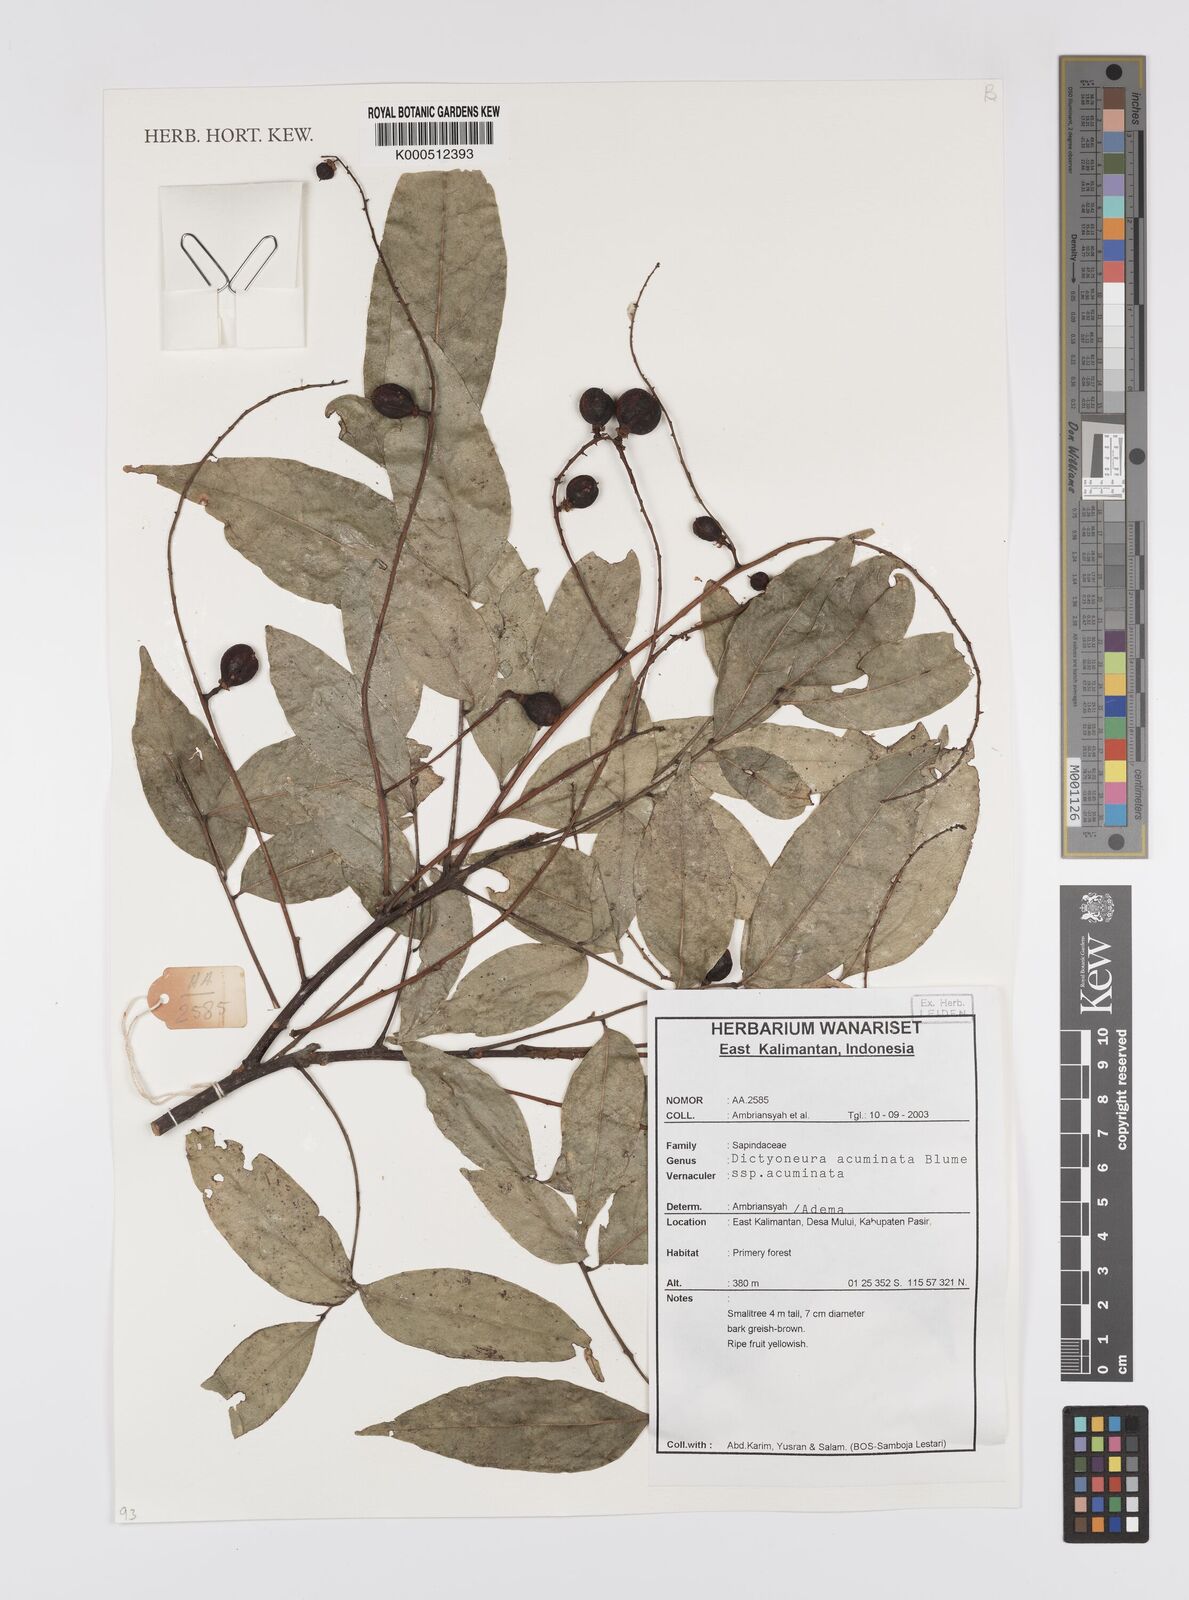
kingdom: Plantae
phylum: Tracheophyta
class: Magnoliopsida
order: Sapindales
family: Sapindaceae
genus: Dictyoneura
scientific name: Dictyoneura acuminata
